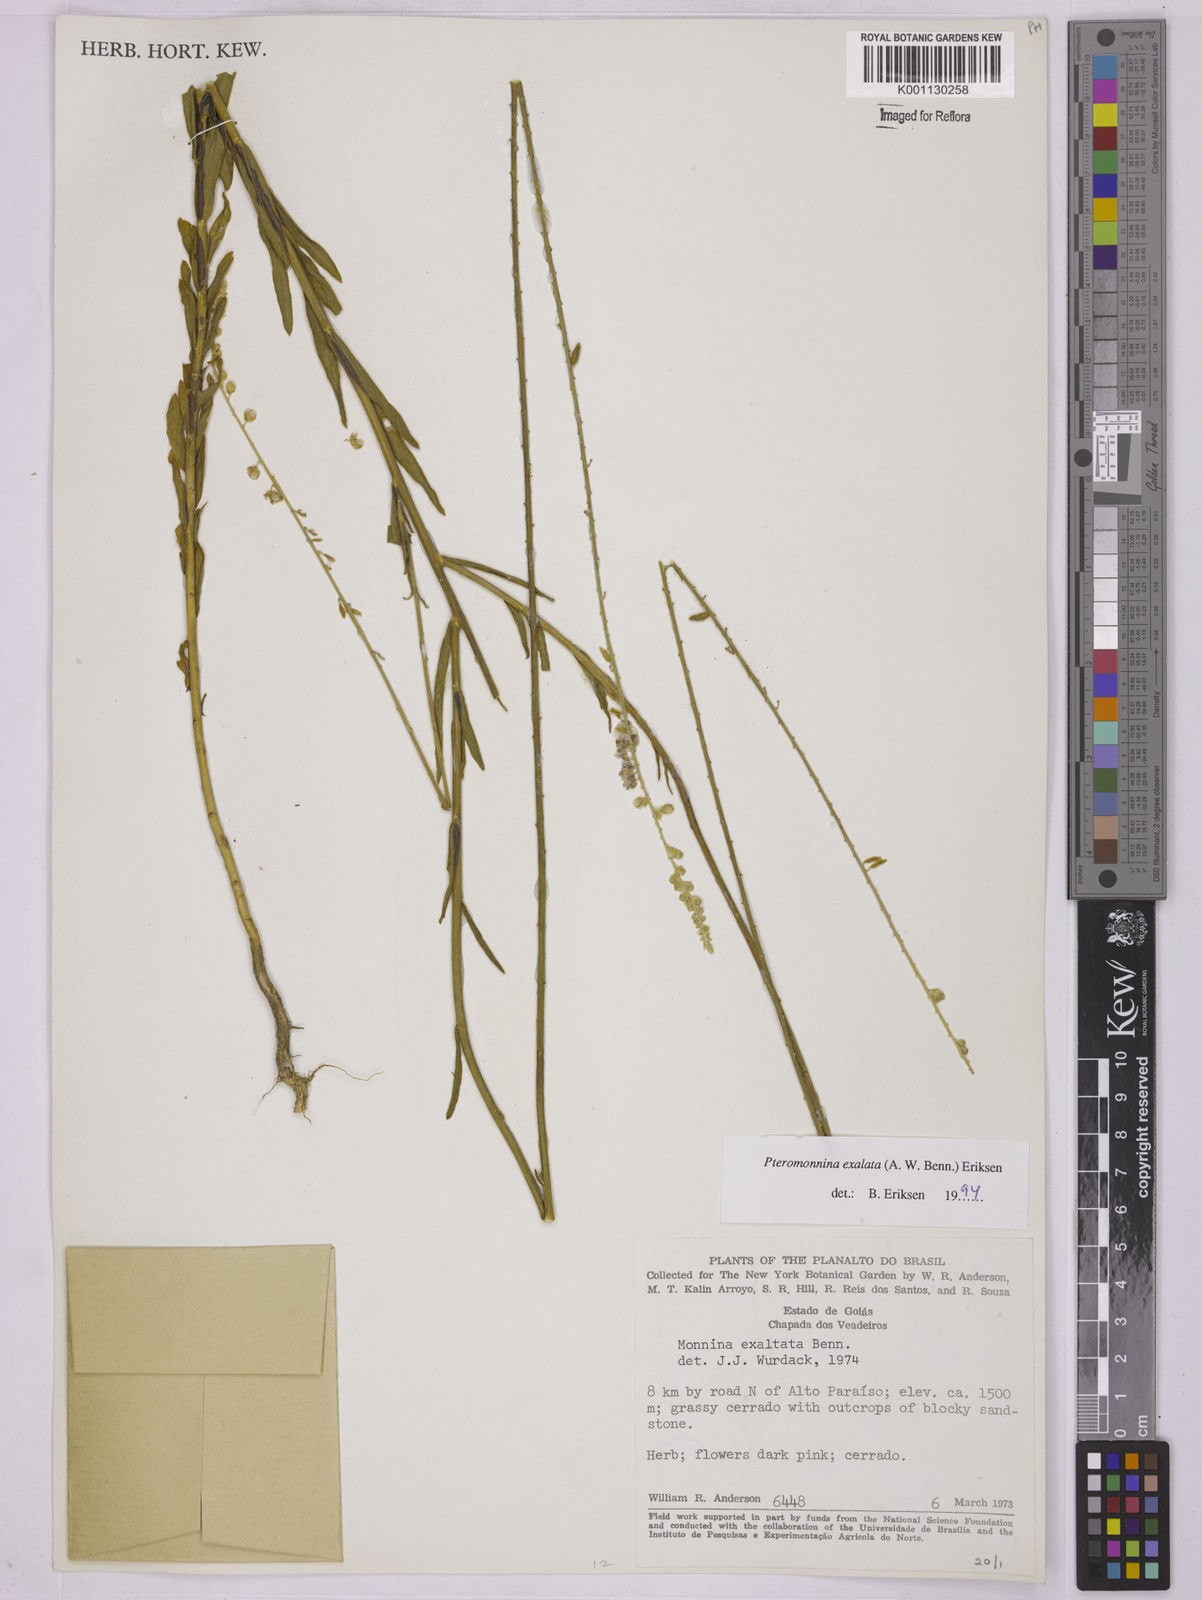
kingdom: Plantae
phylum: Tracheophyta
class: Magnoliopsida
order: Fabales
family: Polygalaceae
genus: Monnina
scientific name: Monnina exalata
